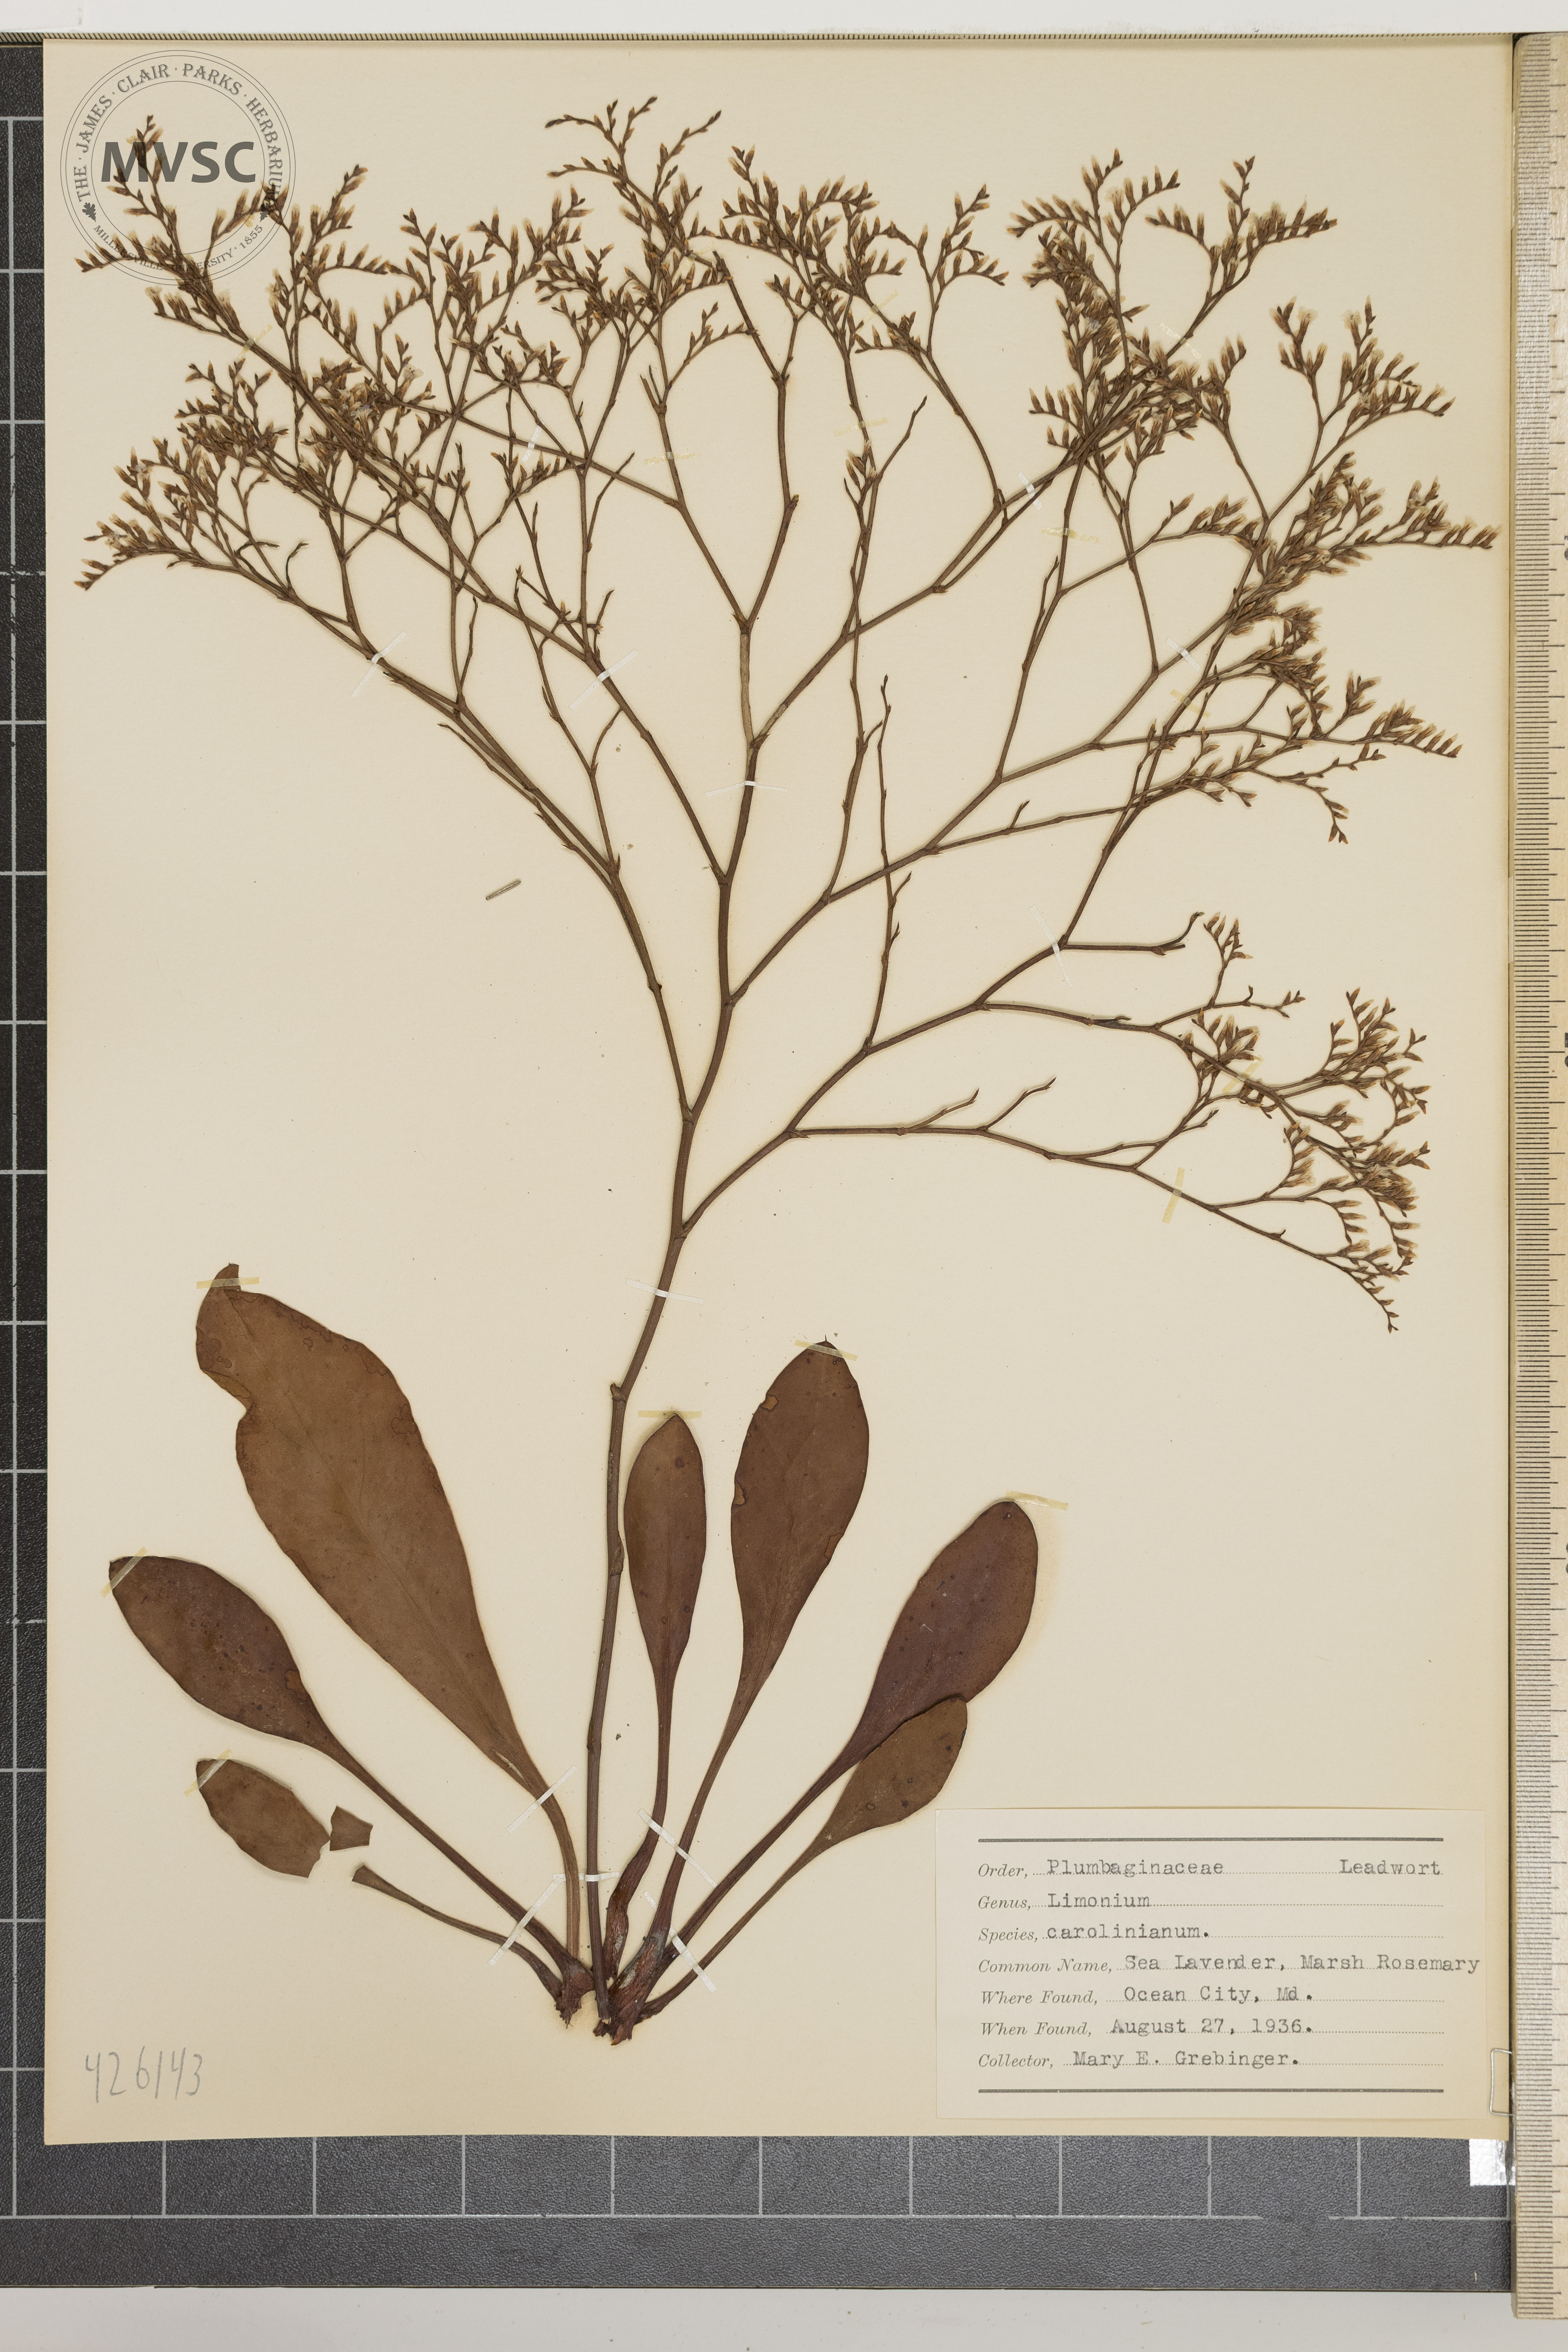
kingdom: Plantae
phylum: Tracheophyta
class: Magnoliopsida
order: Caryophyllales
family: Plumbaginaceae
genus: Limonium
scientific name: Limonium carolinianum
